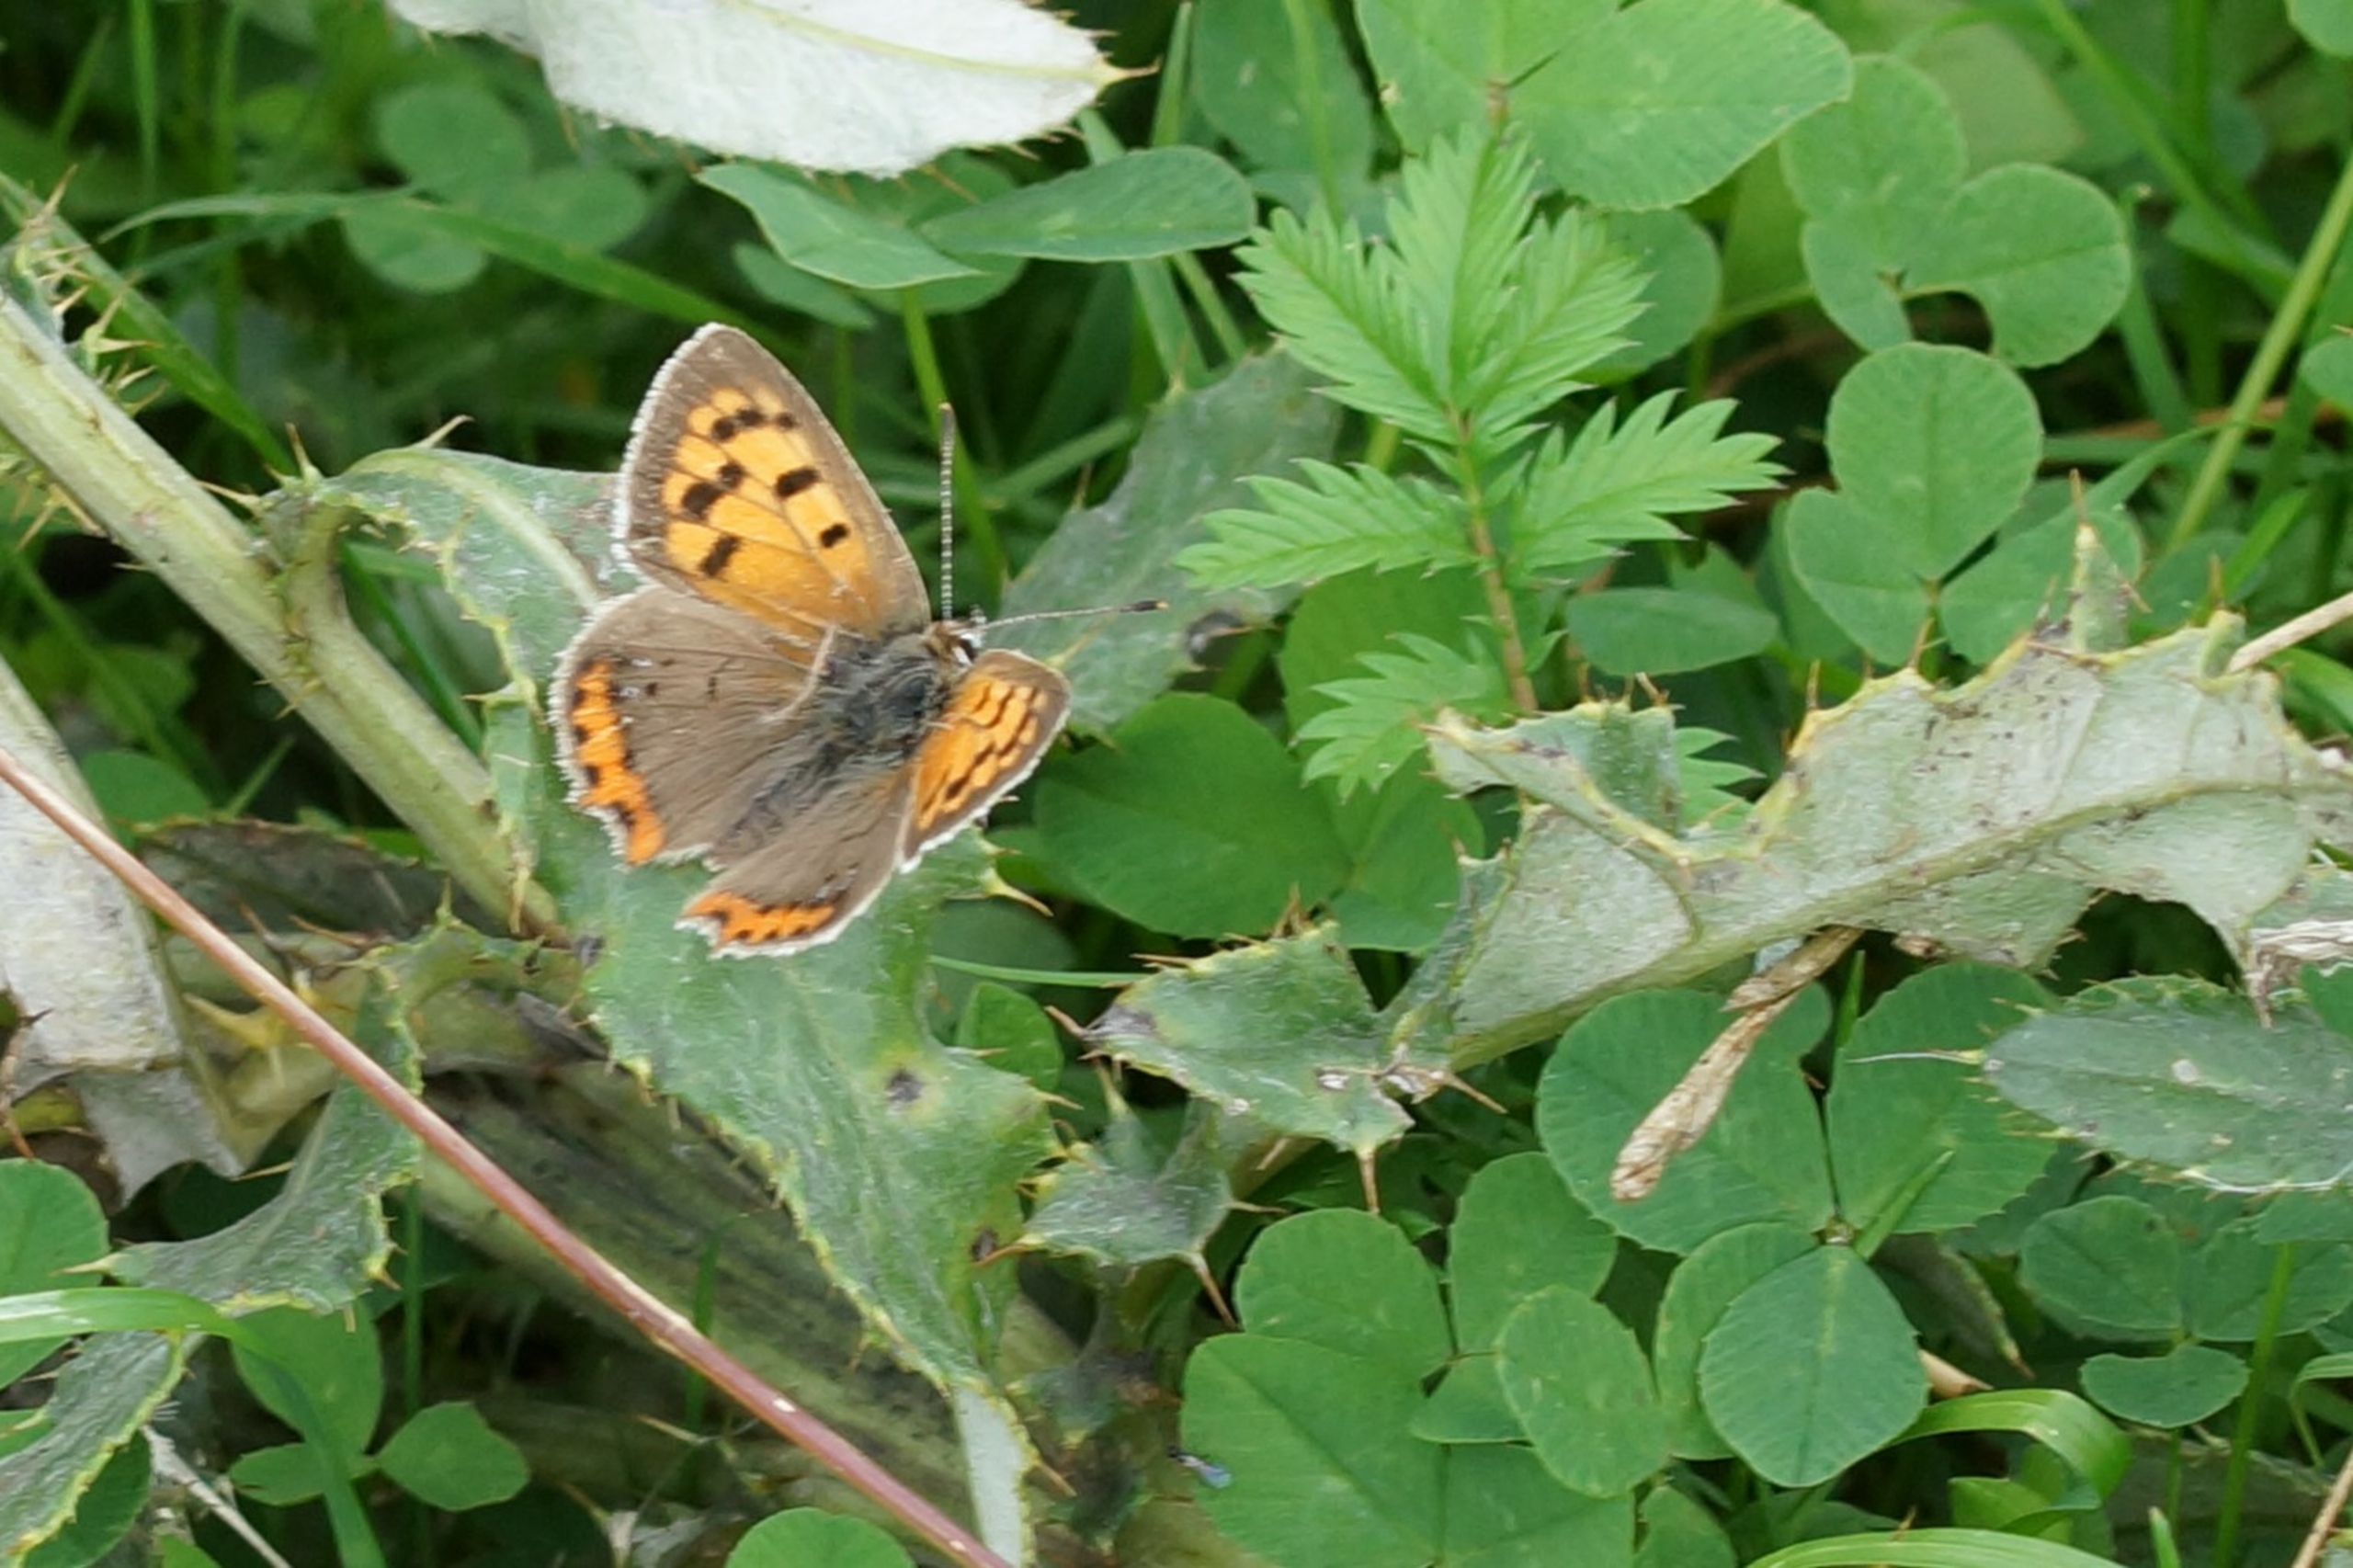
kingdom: Animalia
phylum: Arthropoda
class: Insecta
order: Lepidoptera
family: Lycaenidae
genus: Lycaena
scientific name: Lycaena phlaeas
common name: Lille ildfugl
